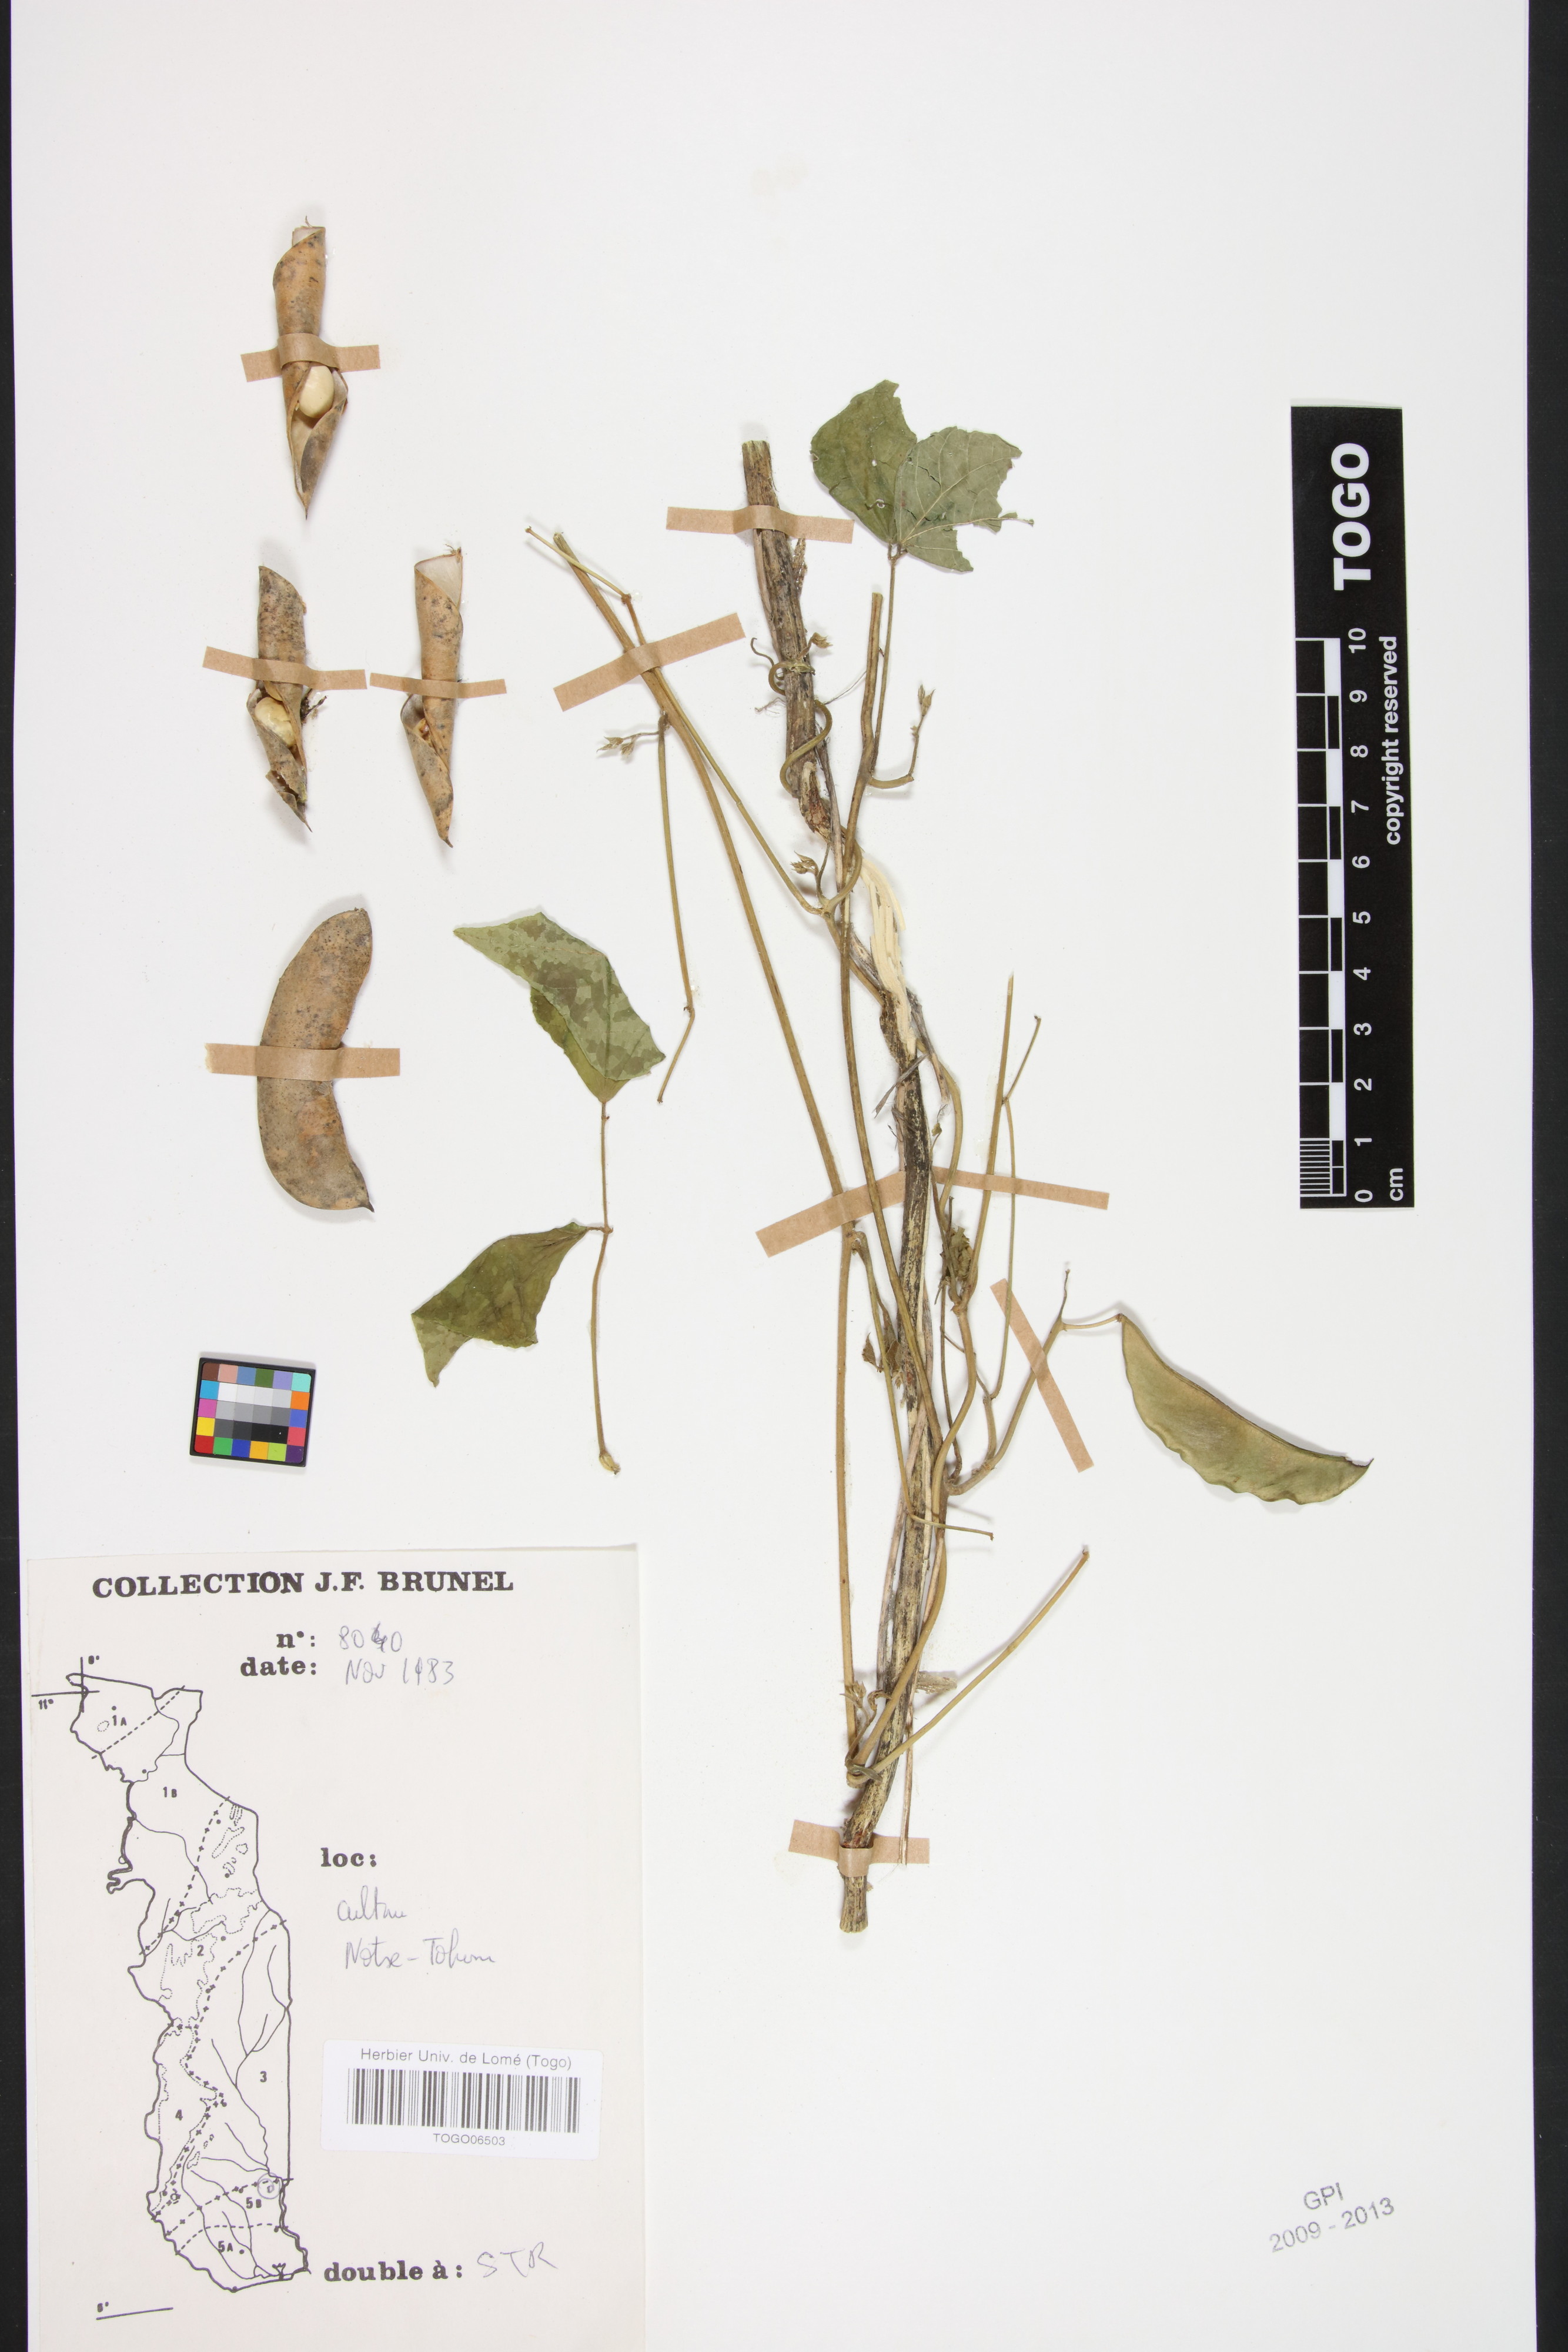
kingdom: Plantae
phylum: Tracheophyta
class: Magnoliopsida
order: Fabales
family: Fabaceae
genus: Phaseolus
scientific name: Phaseolus lunatus
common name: Sieva bean
